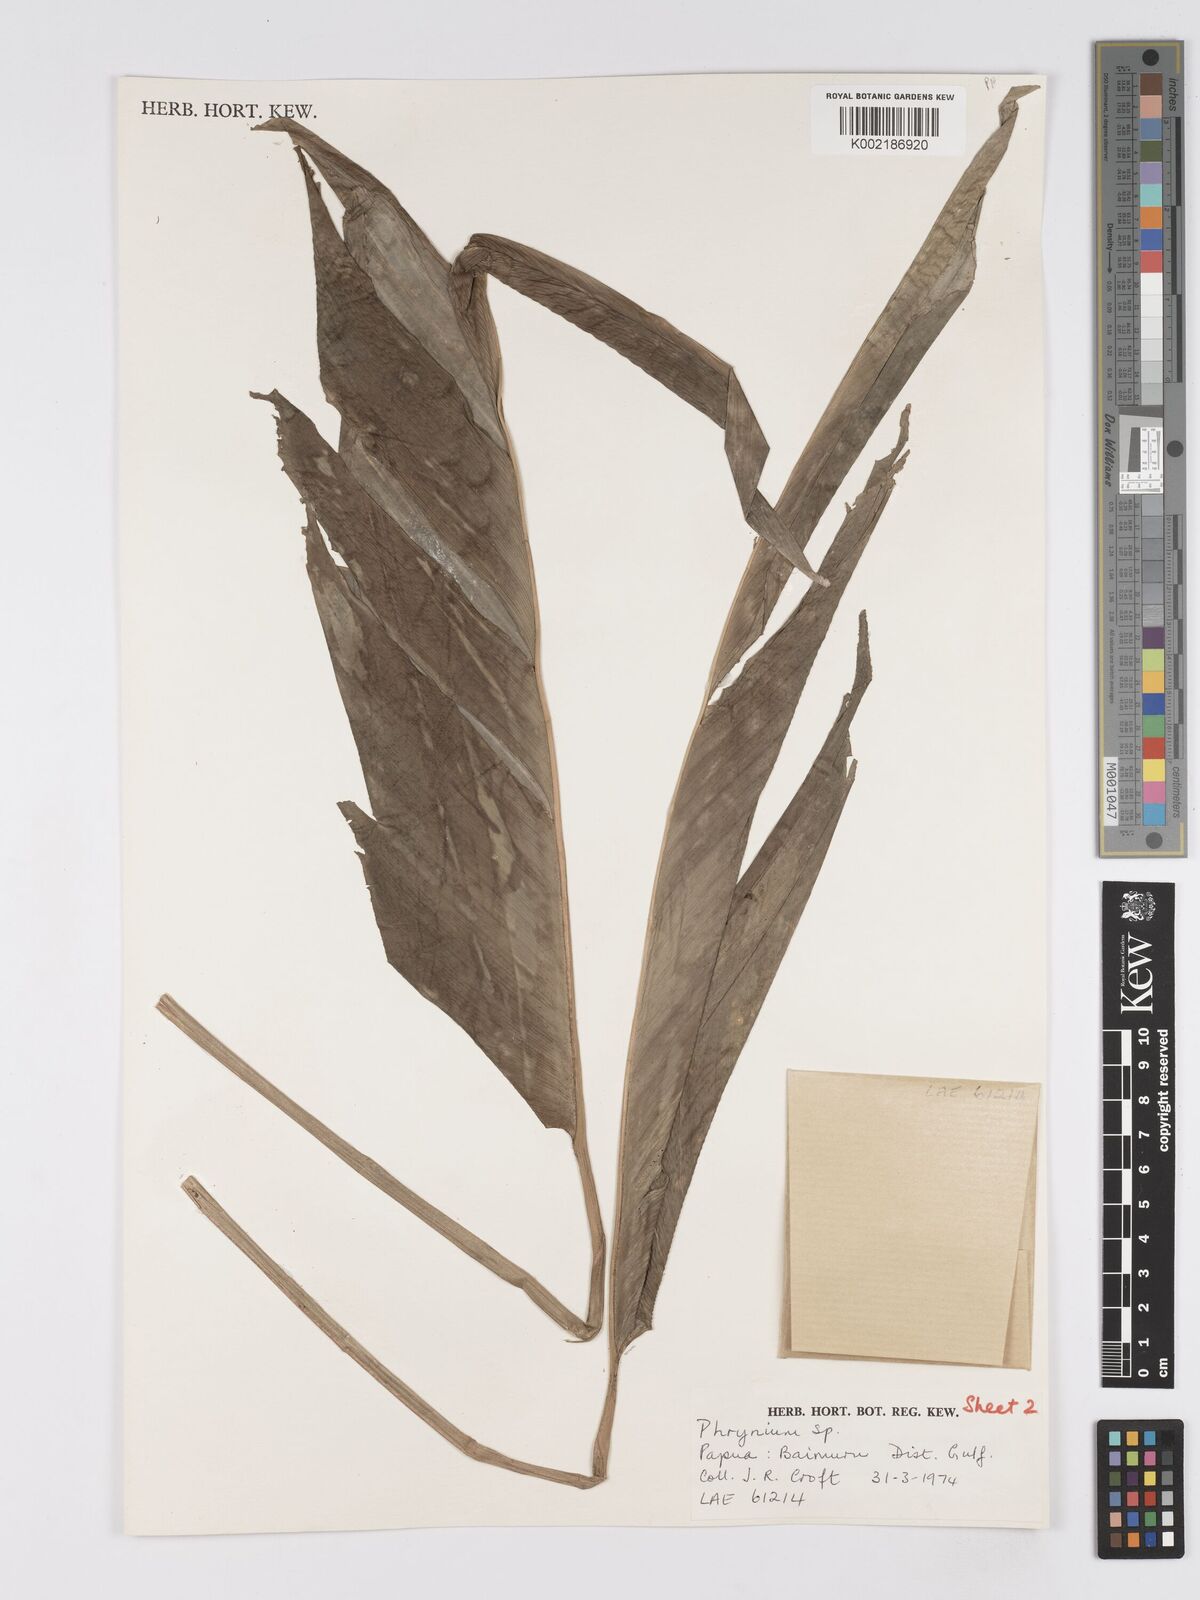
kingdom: Plantae
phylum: Tracheophyta
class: Liliopsida
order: Zingiberales
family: Marantaceae
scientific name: Marantaceae
